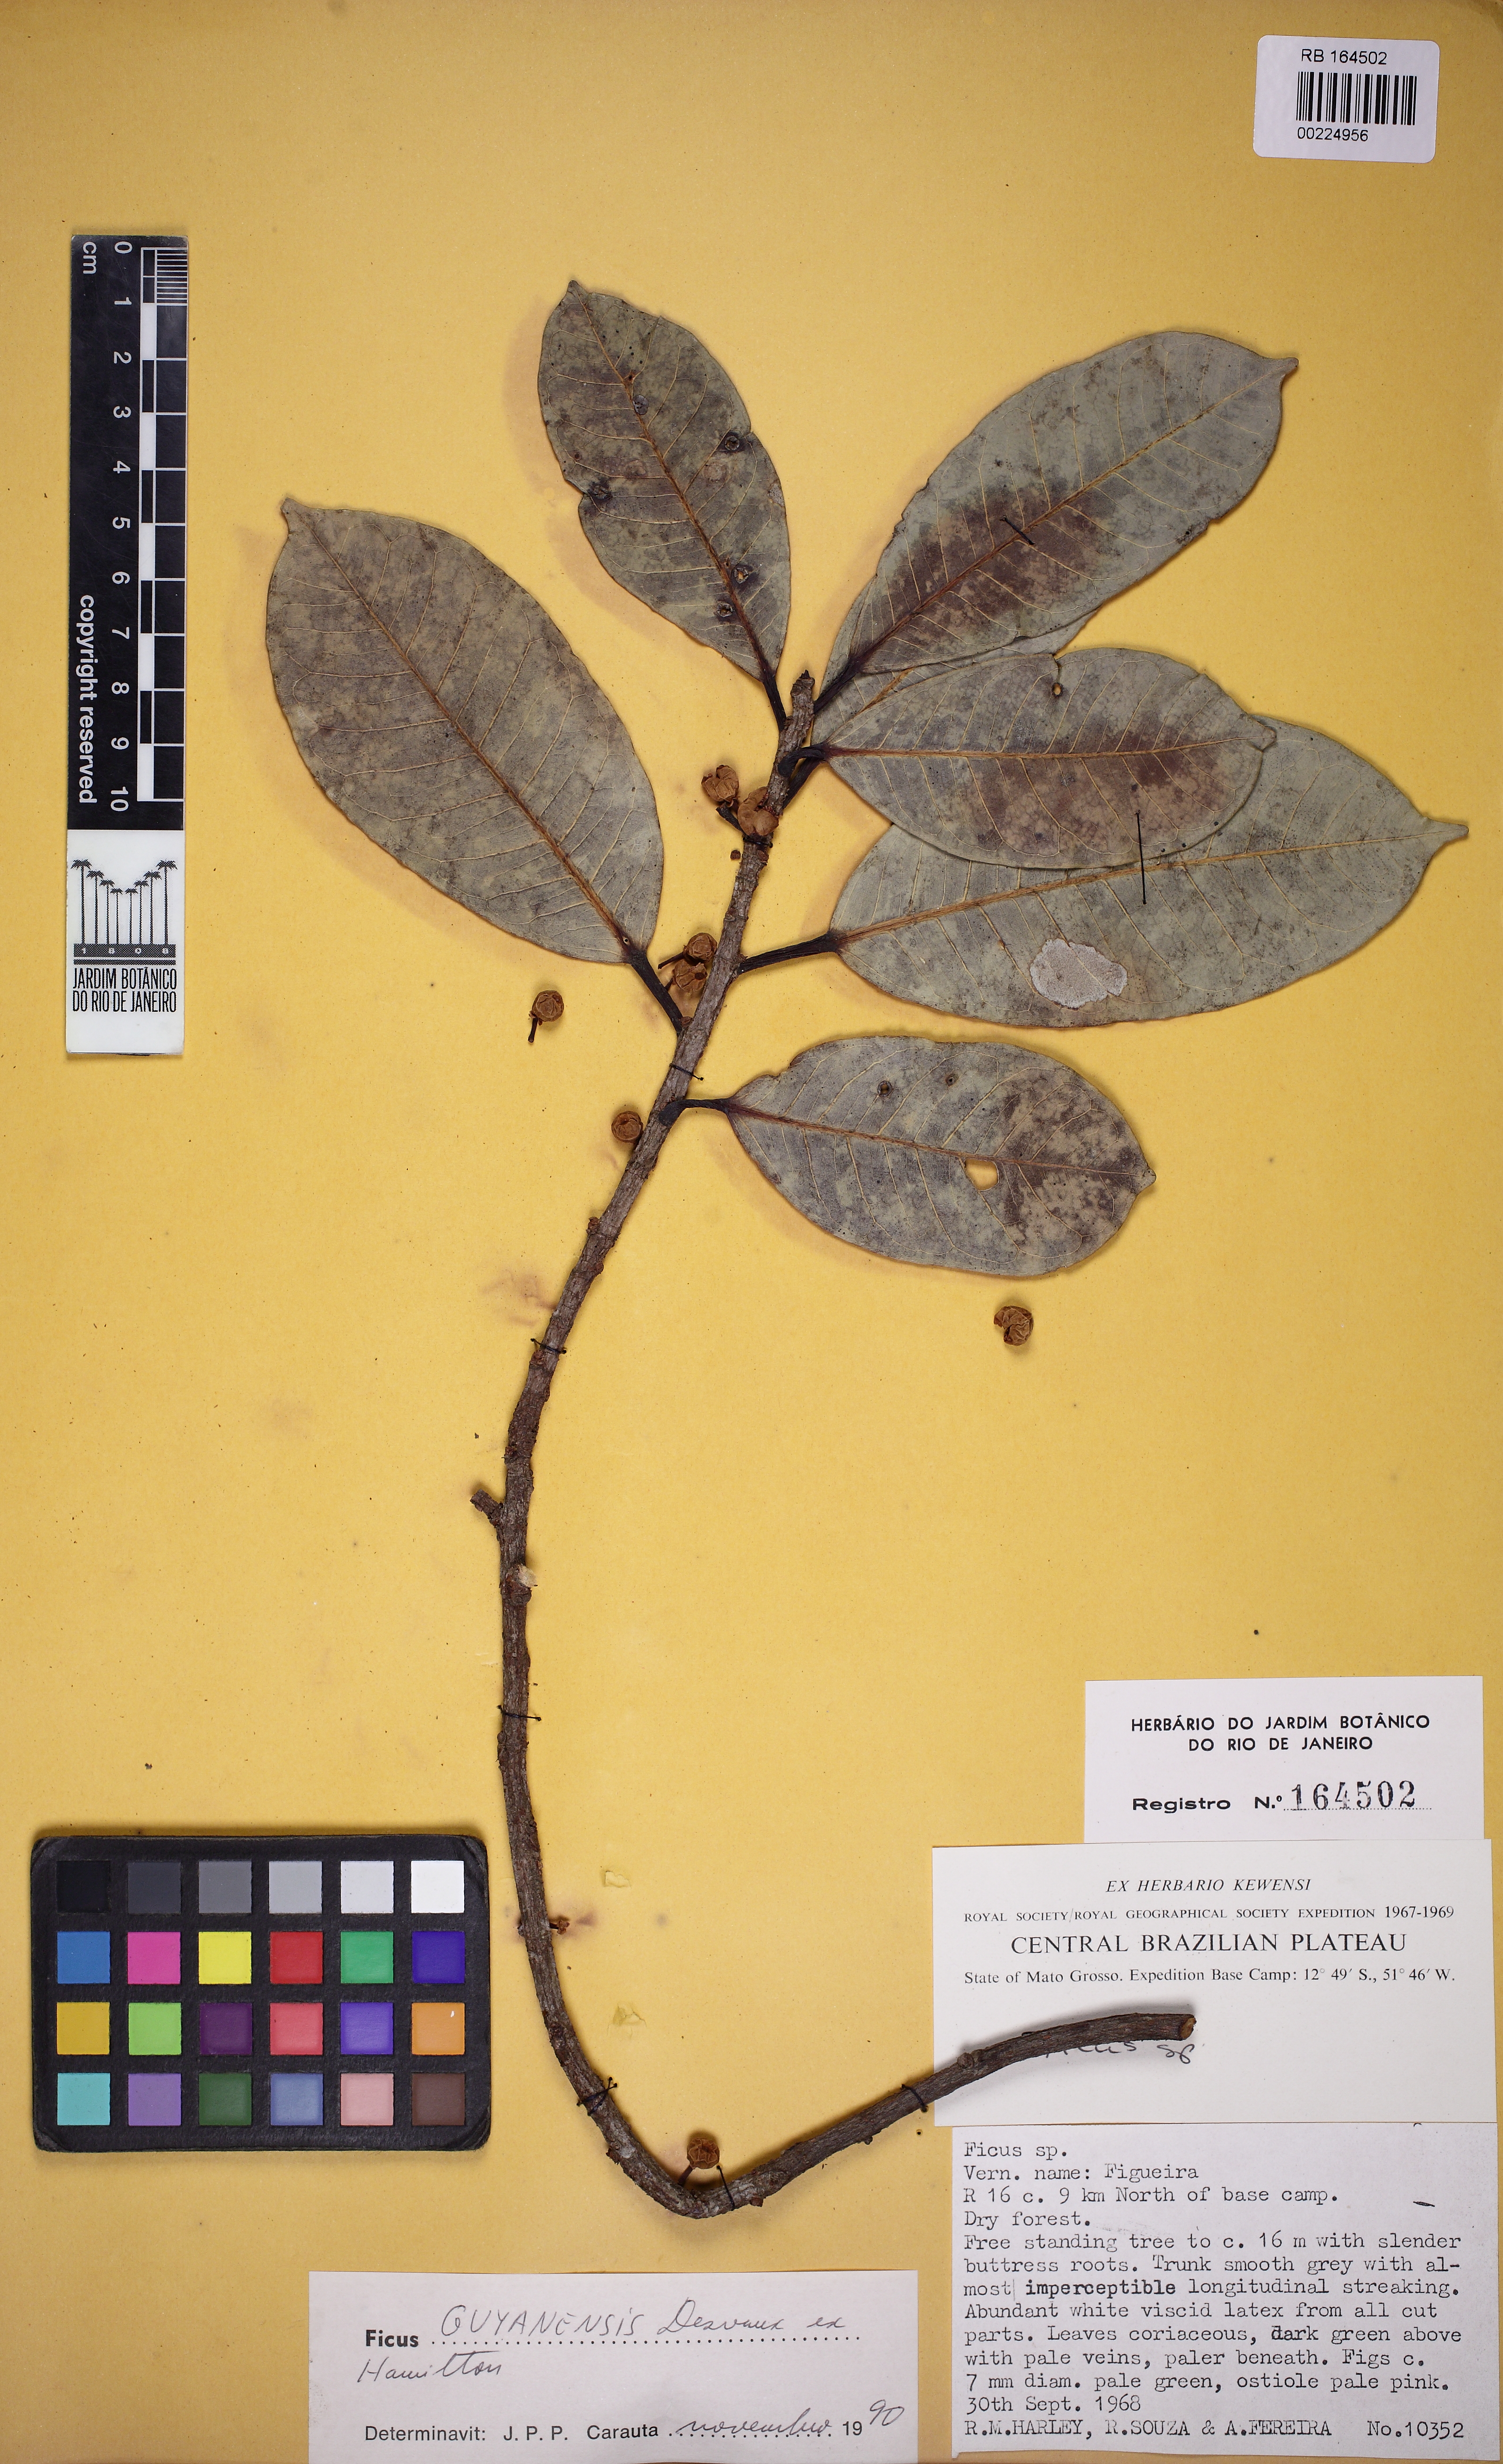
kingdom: Plantae
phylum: Tracheophyta
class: Magnoliopsida
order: Rosales
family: Moraceae
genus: Ficus
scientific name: Ficus americana
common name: Jamaican cherry fig
